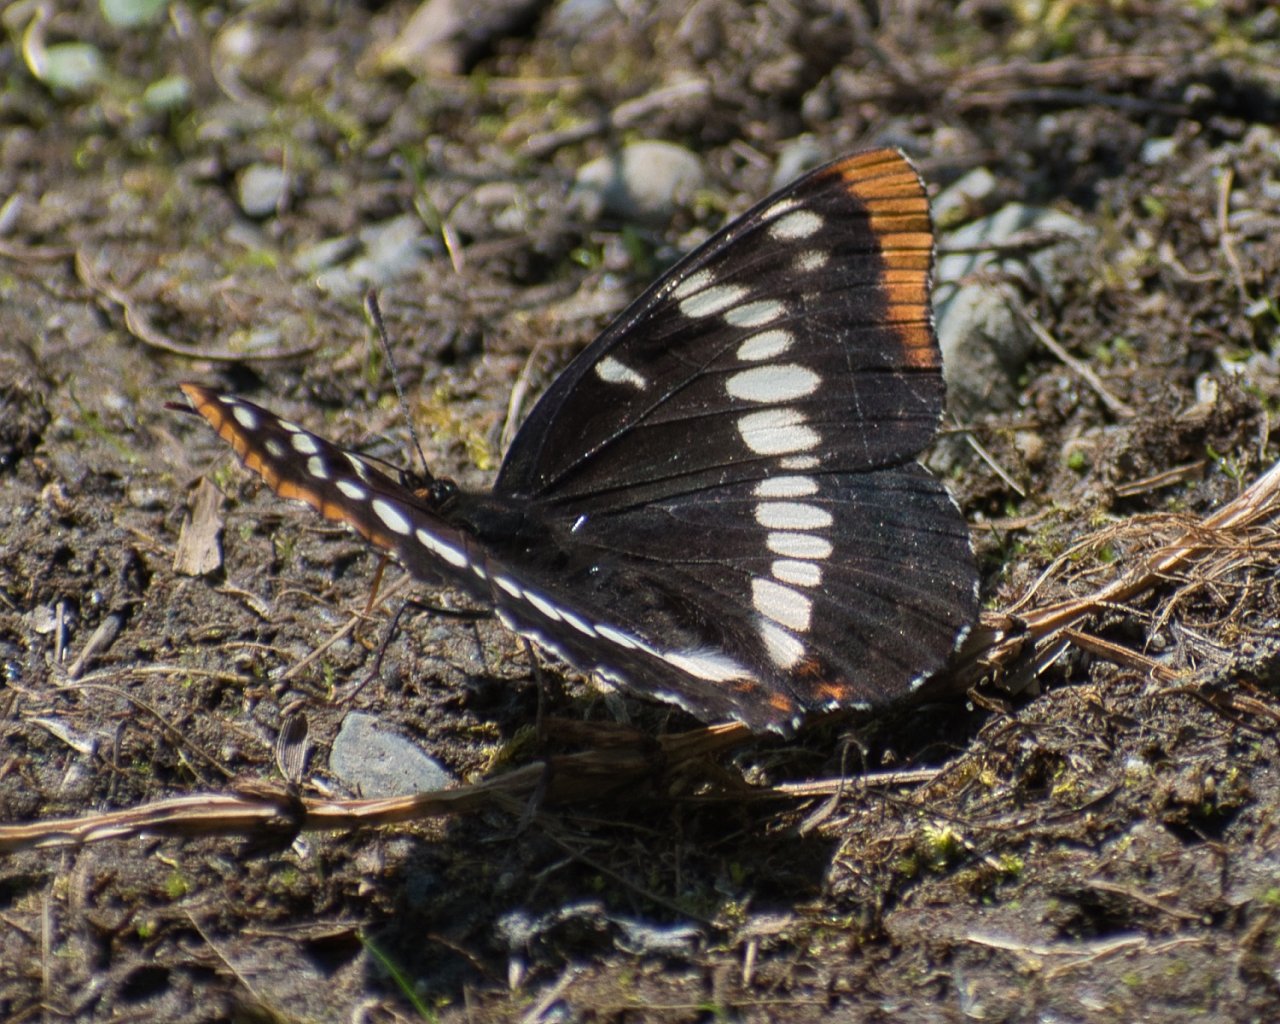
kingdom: Animalia
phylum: Arthropoda
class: Insecta
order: Lepidoptera
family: Nymphalidae
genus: Limenitis
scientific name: Limenitis lorquini
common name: Lorquin's Admiral
